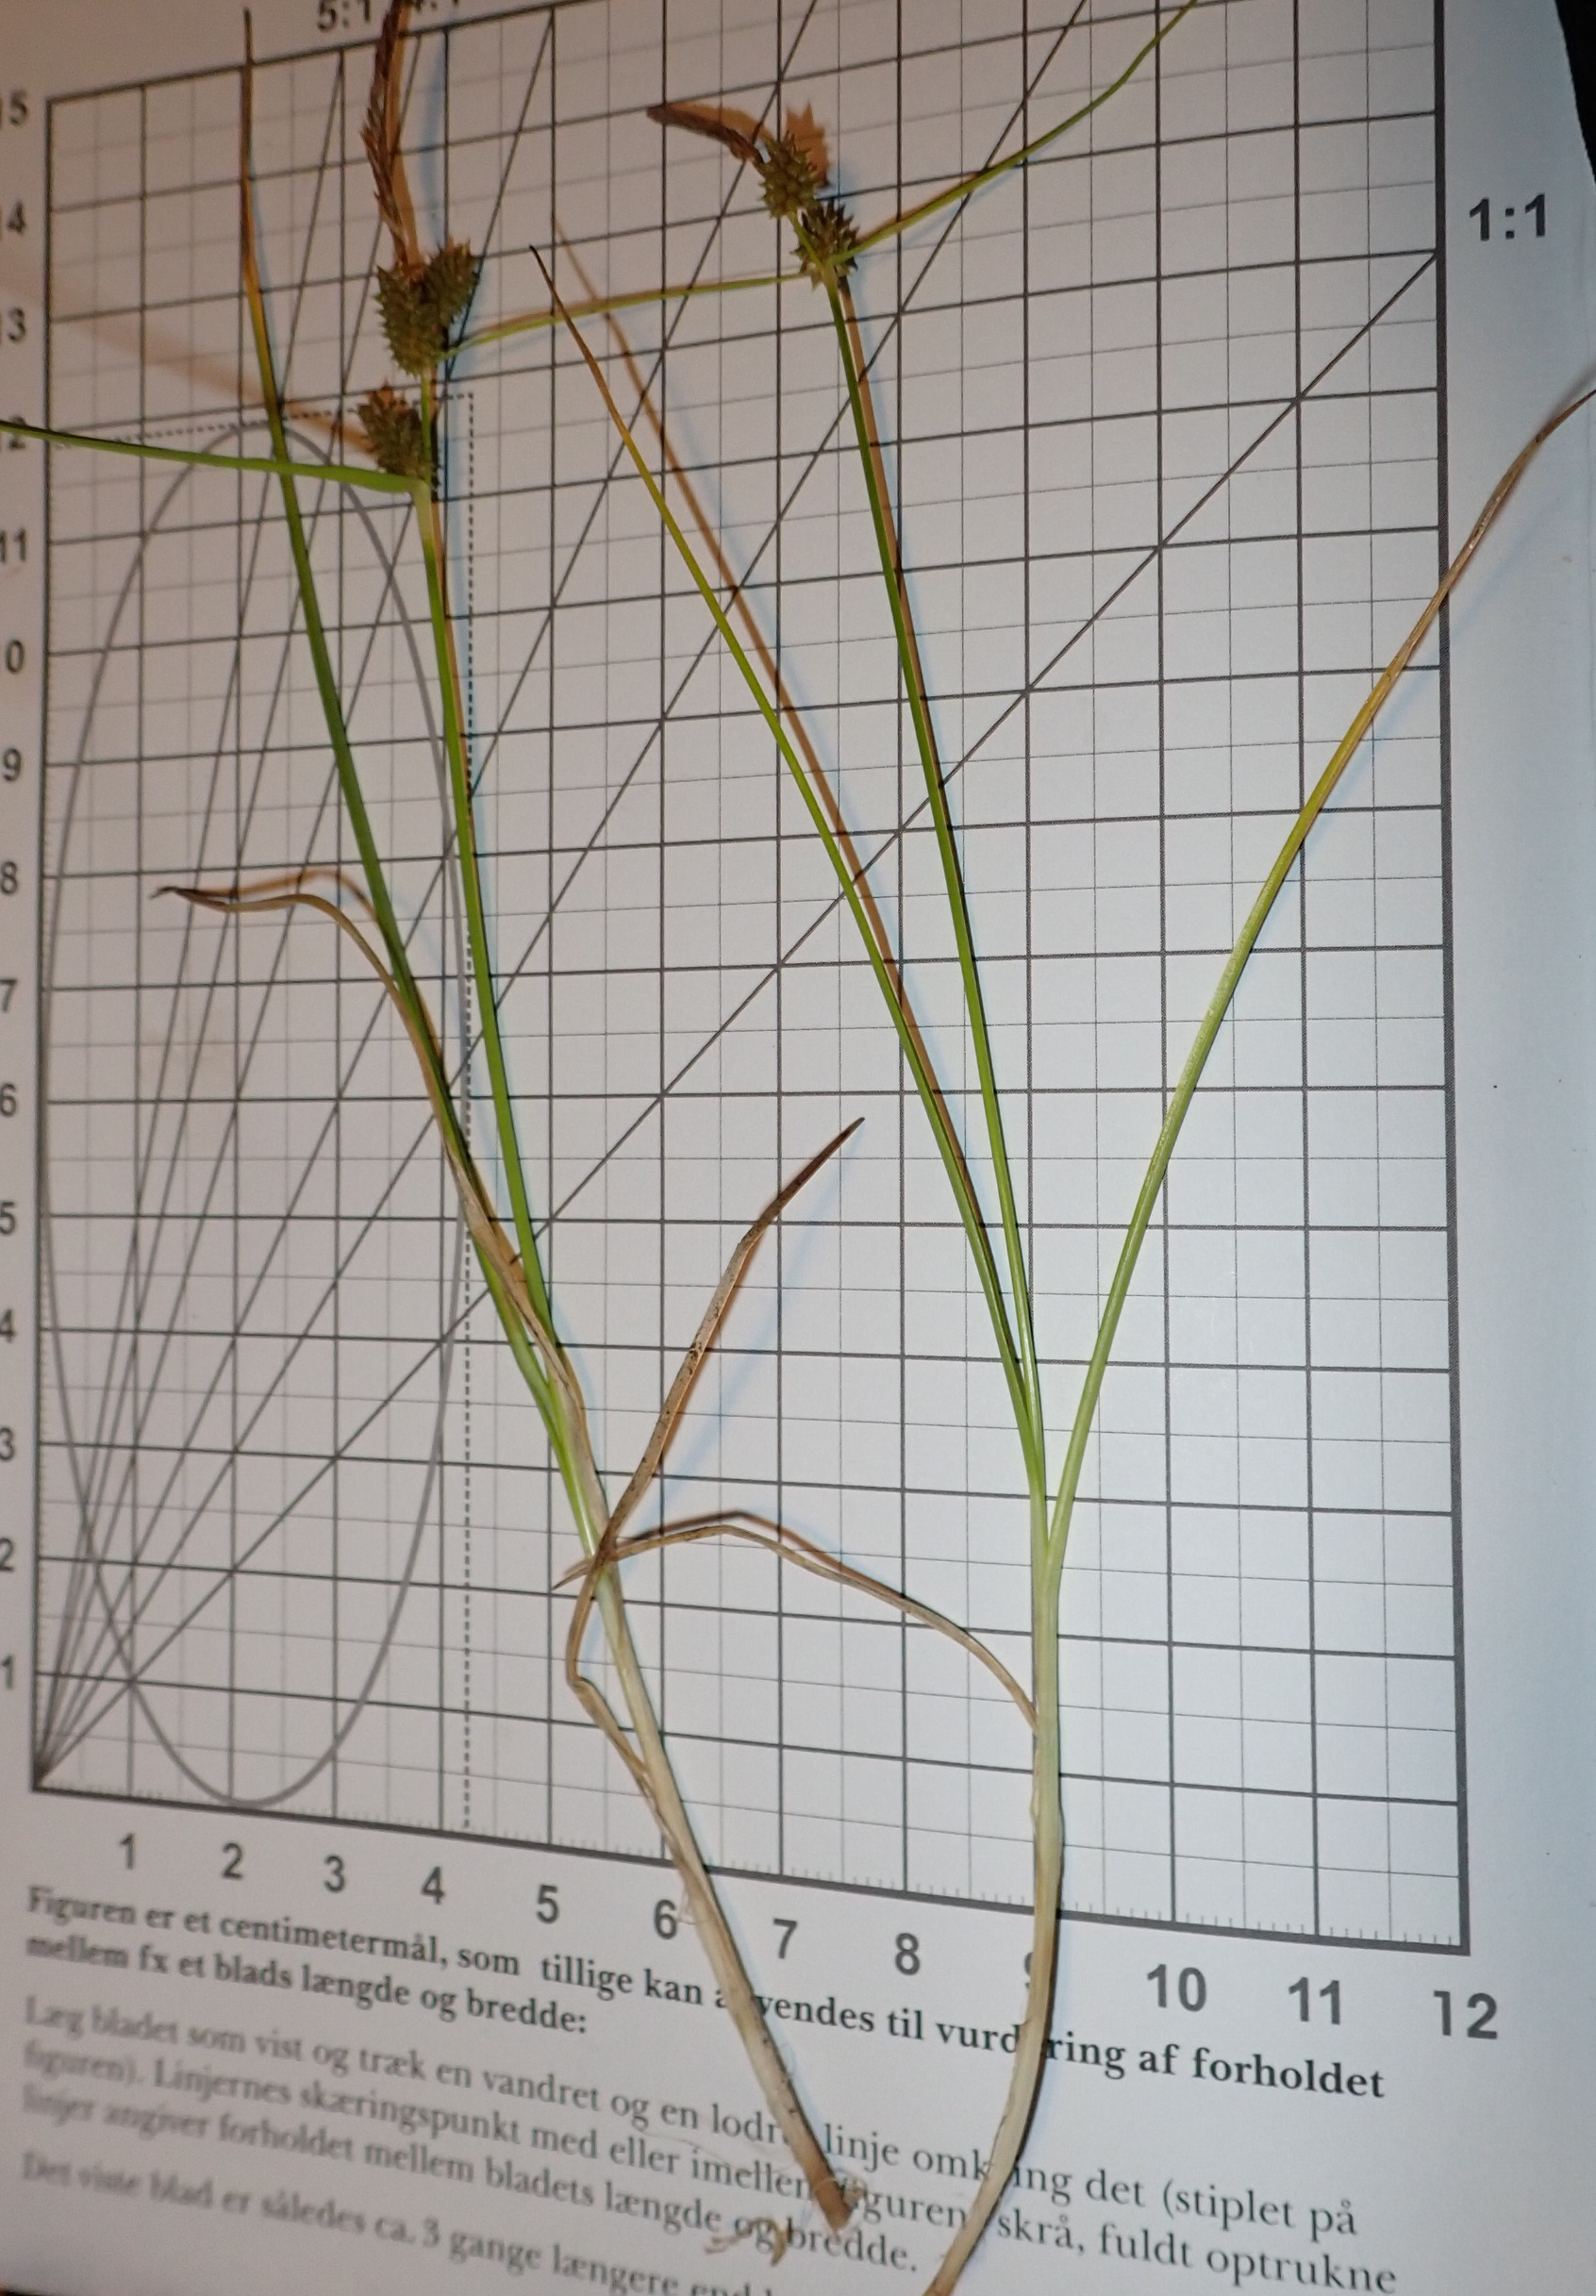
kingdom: Plantae
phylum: Tracheophyta
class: Liliopsida
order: Poales
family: Cyperaceae
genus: Carex
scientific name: Carex oederi
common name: Dværg-star
